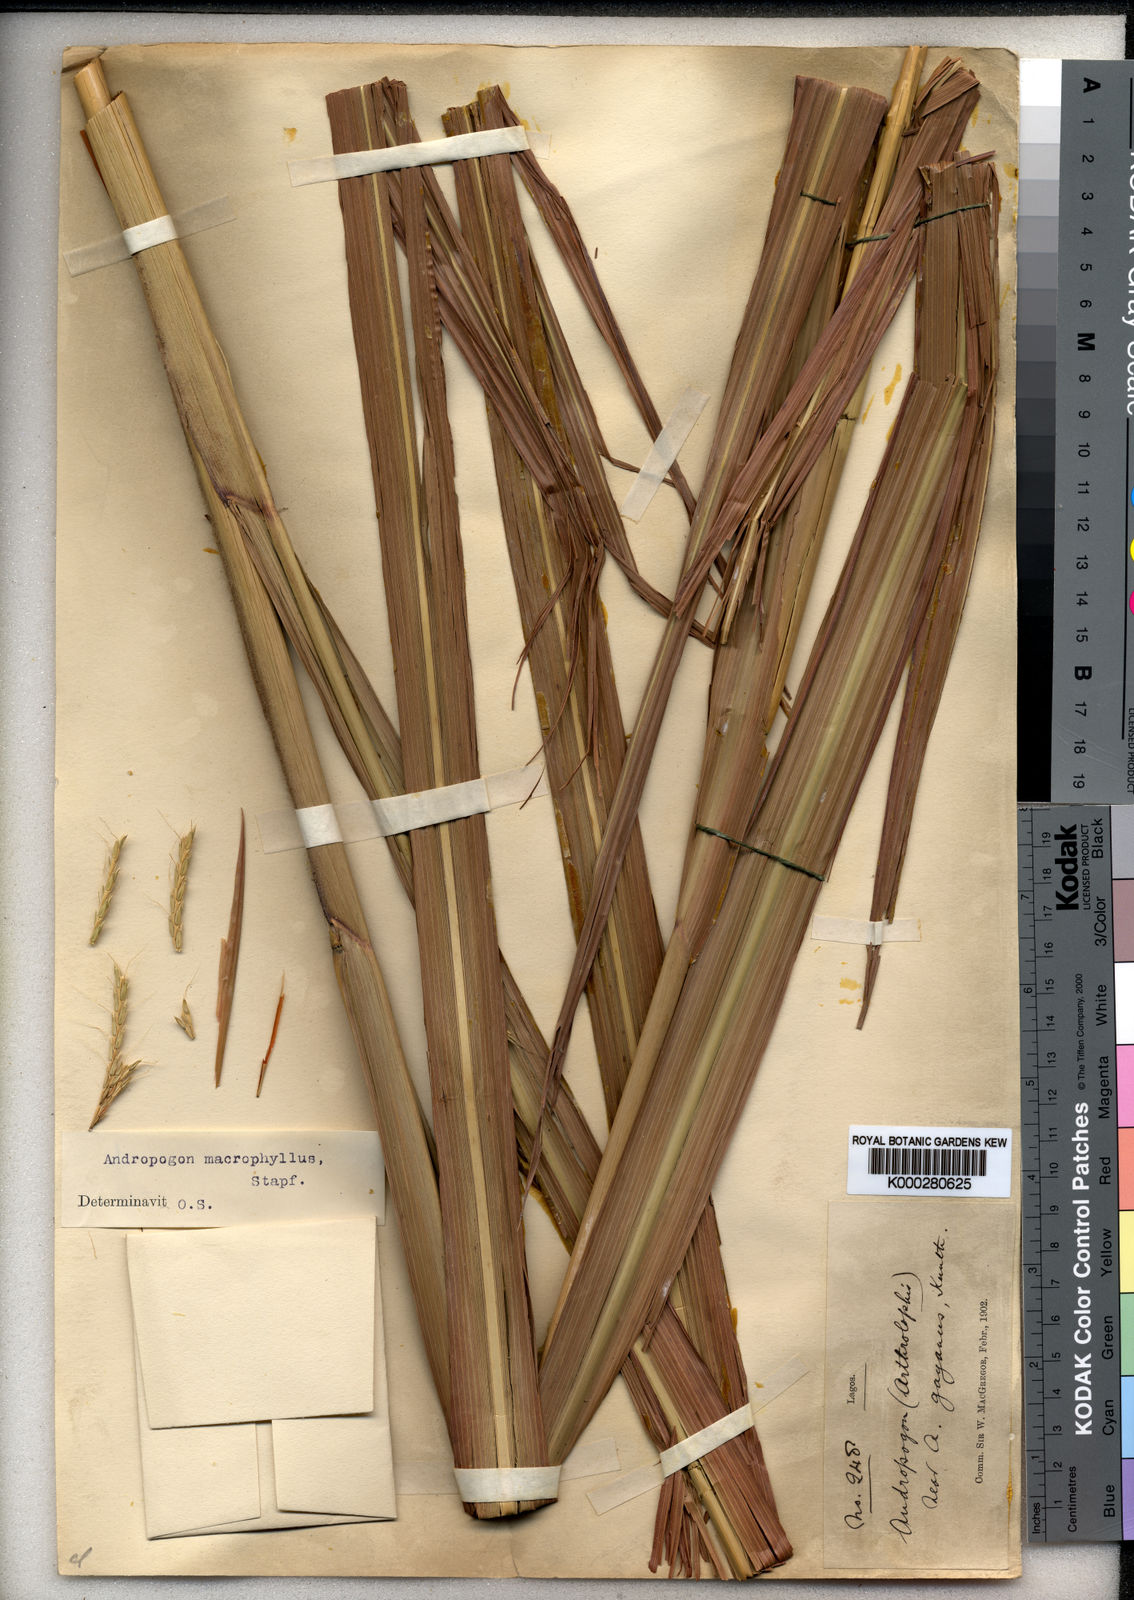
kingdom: Plantae
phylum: Tracheophyta
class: Liliopsida
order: Poales
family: Poaceae
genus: Andropogon
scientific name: Andropogon macrophyllus
